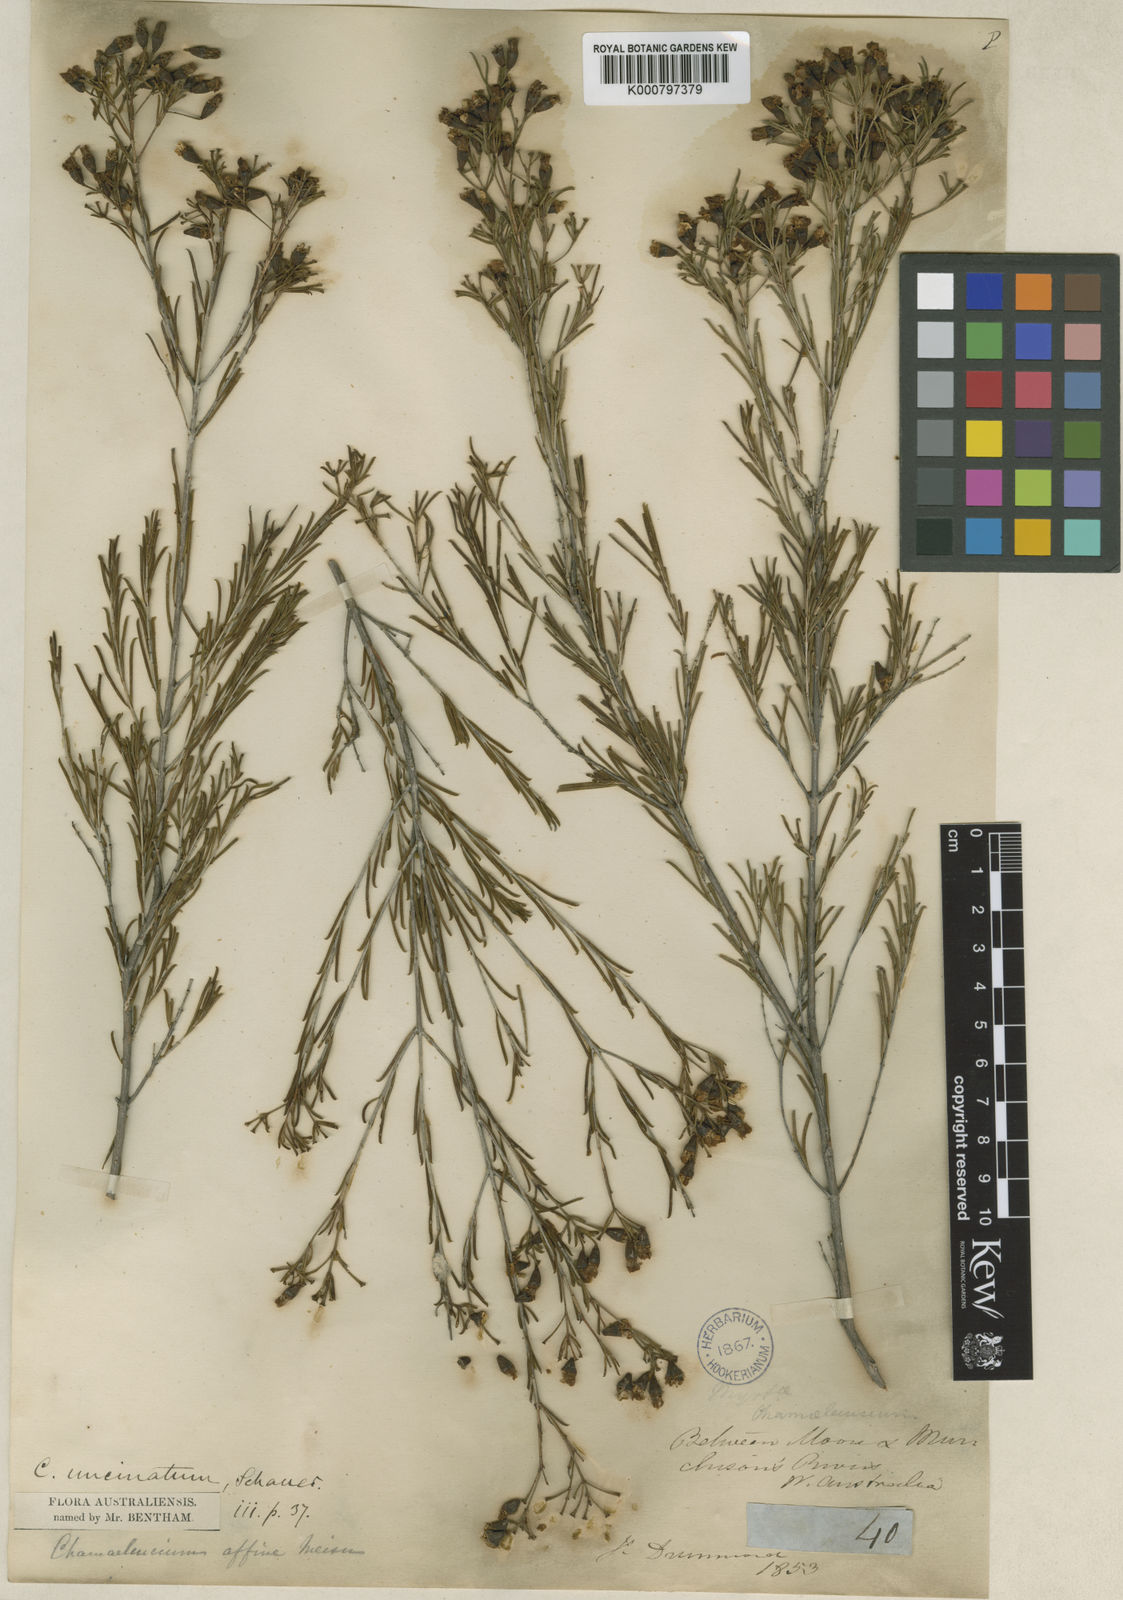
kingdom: Plantae
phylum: Tracheophyta
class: Magnoliopsida
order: Myrtales
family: Myrtaceae
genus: Chamelaucium
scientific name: Chamelaucium uncinatum
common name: Geraldton wax
